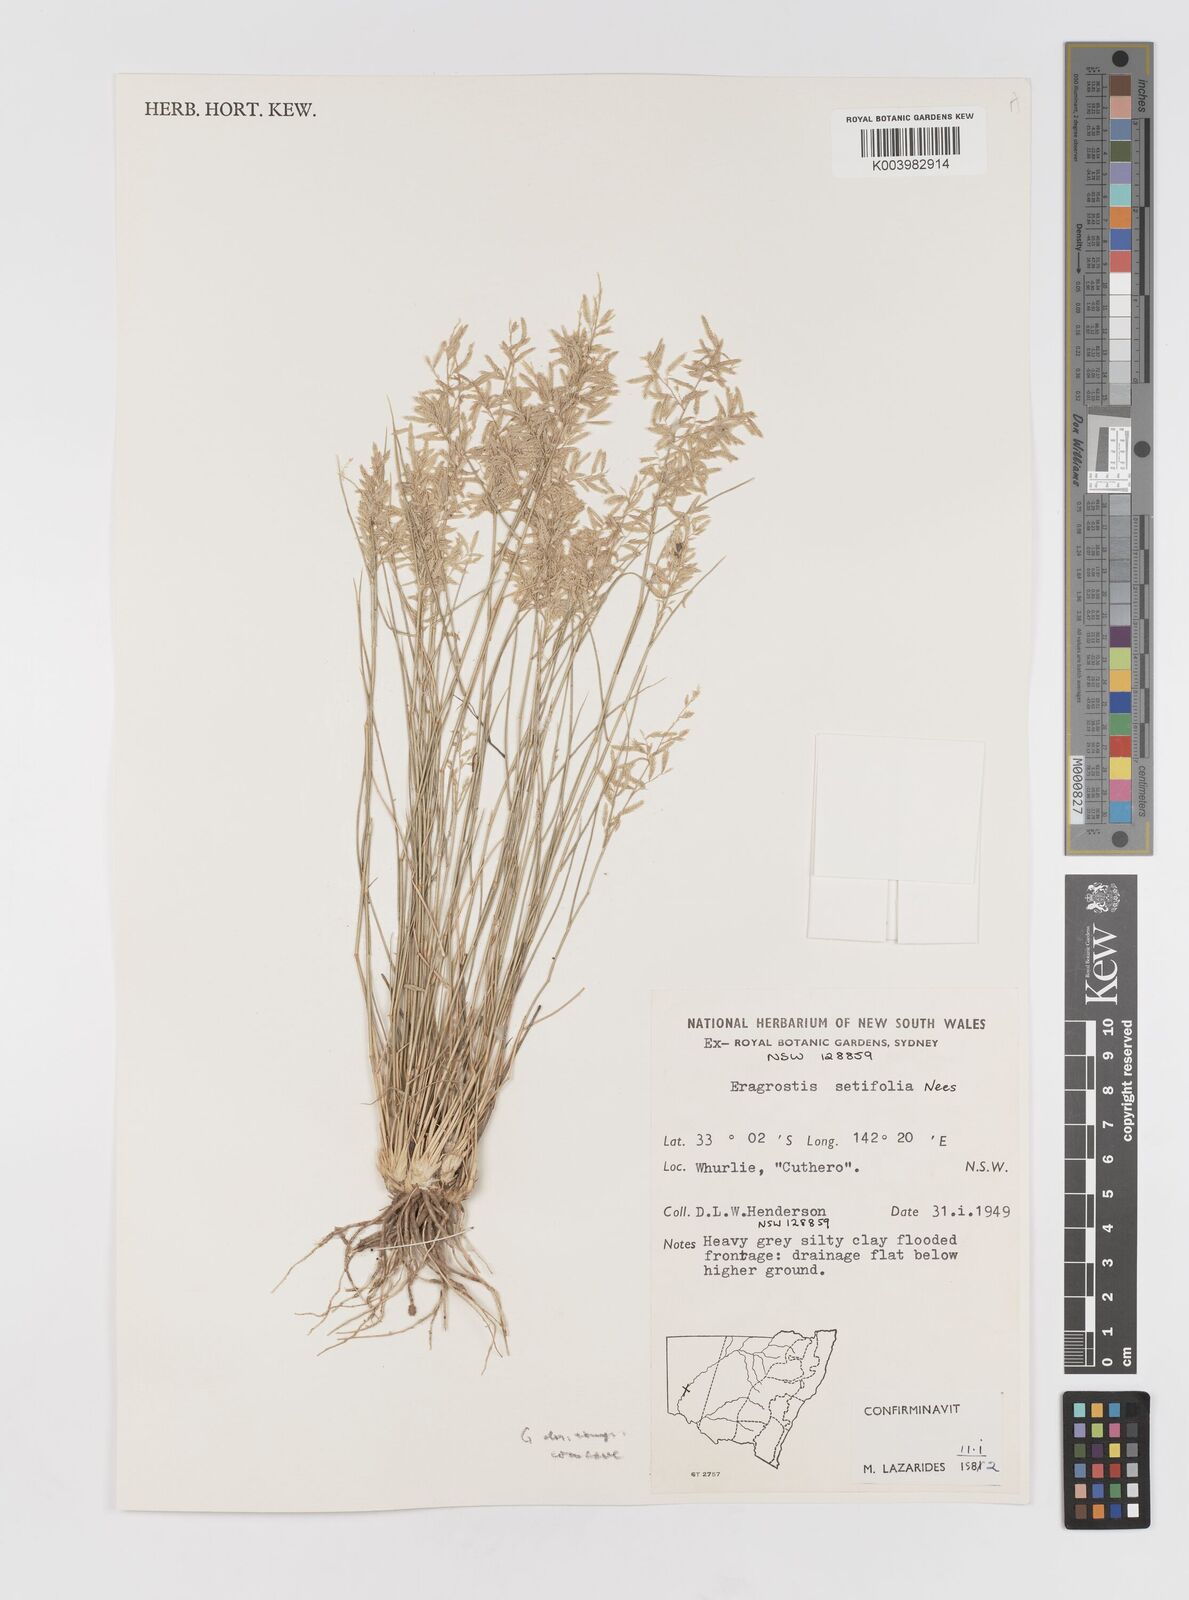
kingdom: Plantae
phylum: Tracheophyta
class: Liliopsida
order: Poales
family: Poaceae
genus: Eragrostis
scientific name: Eragrostis setifolia
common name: Bristleleaf lovegrass
